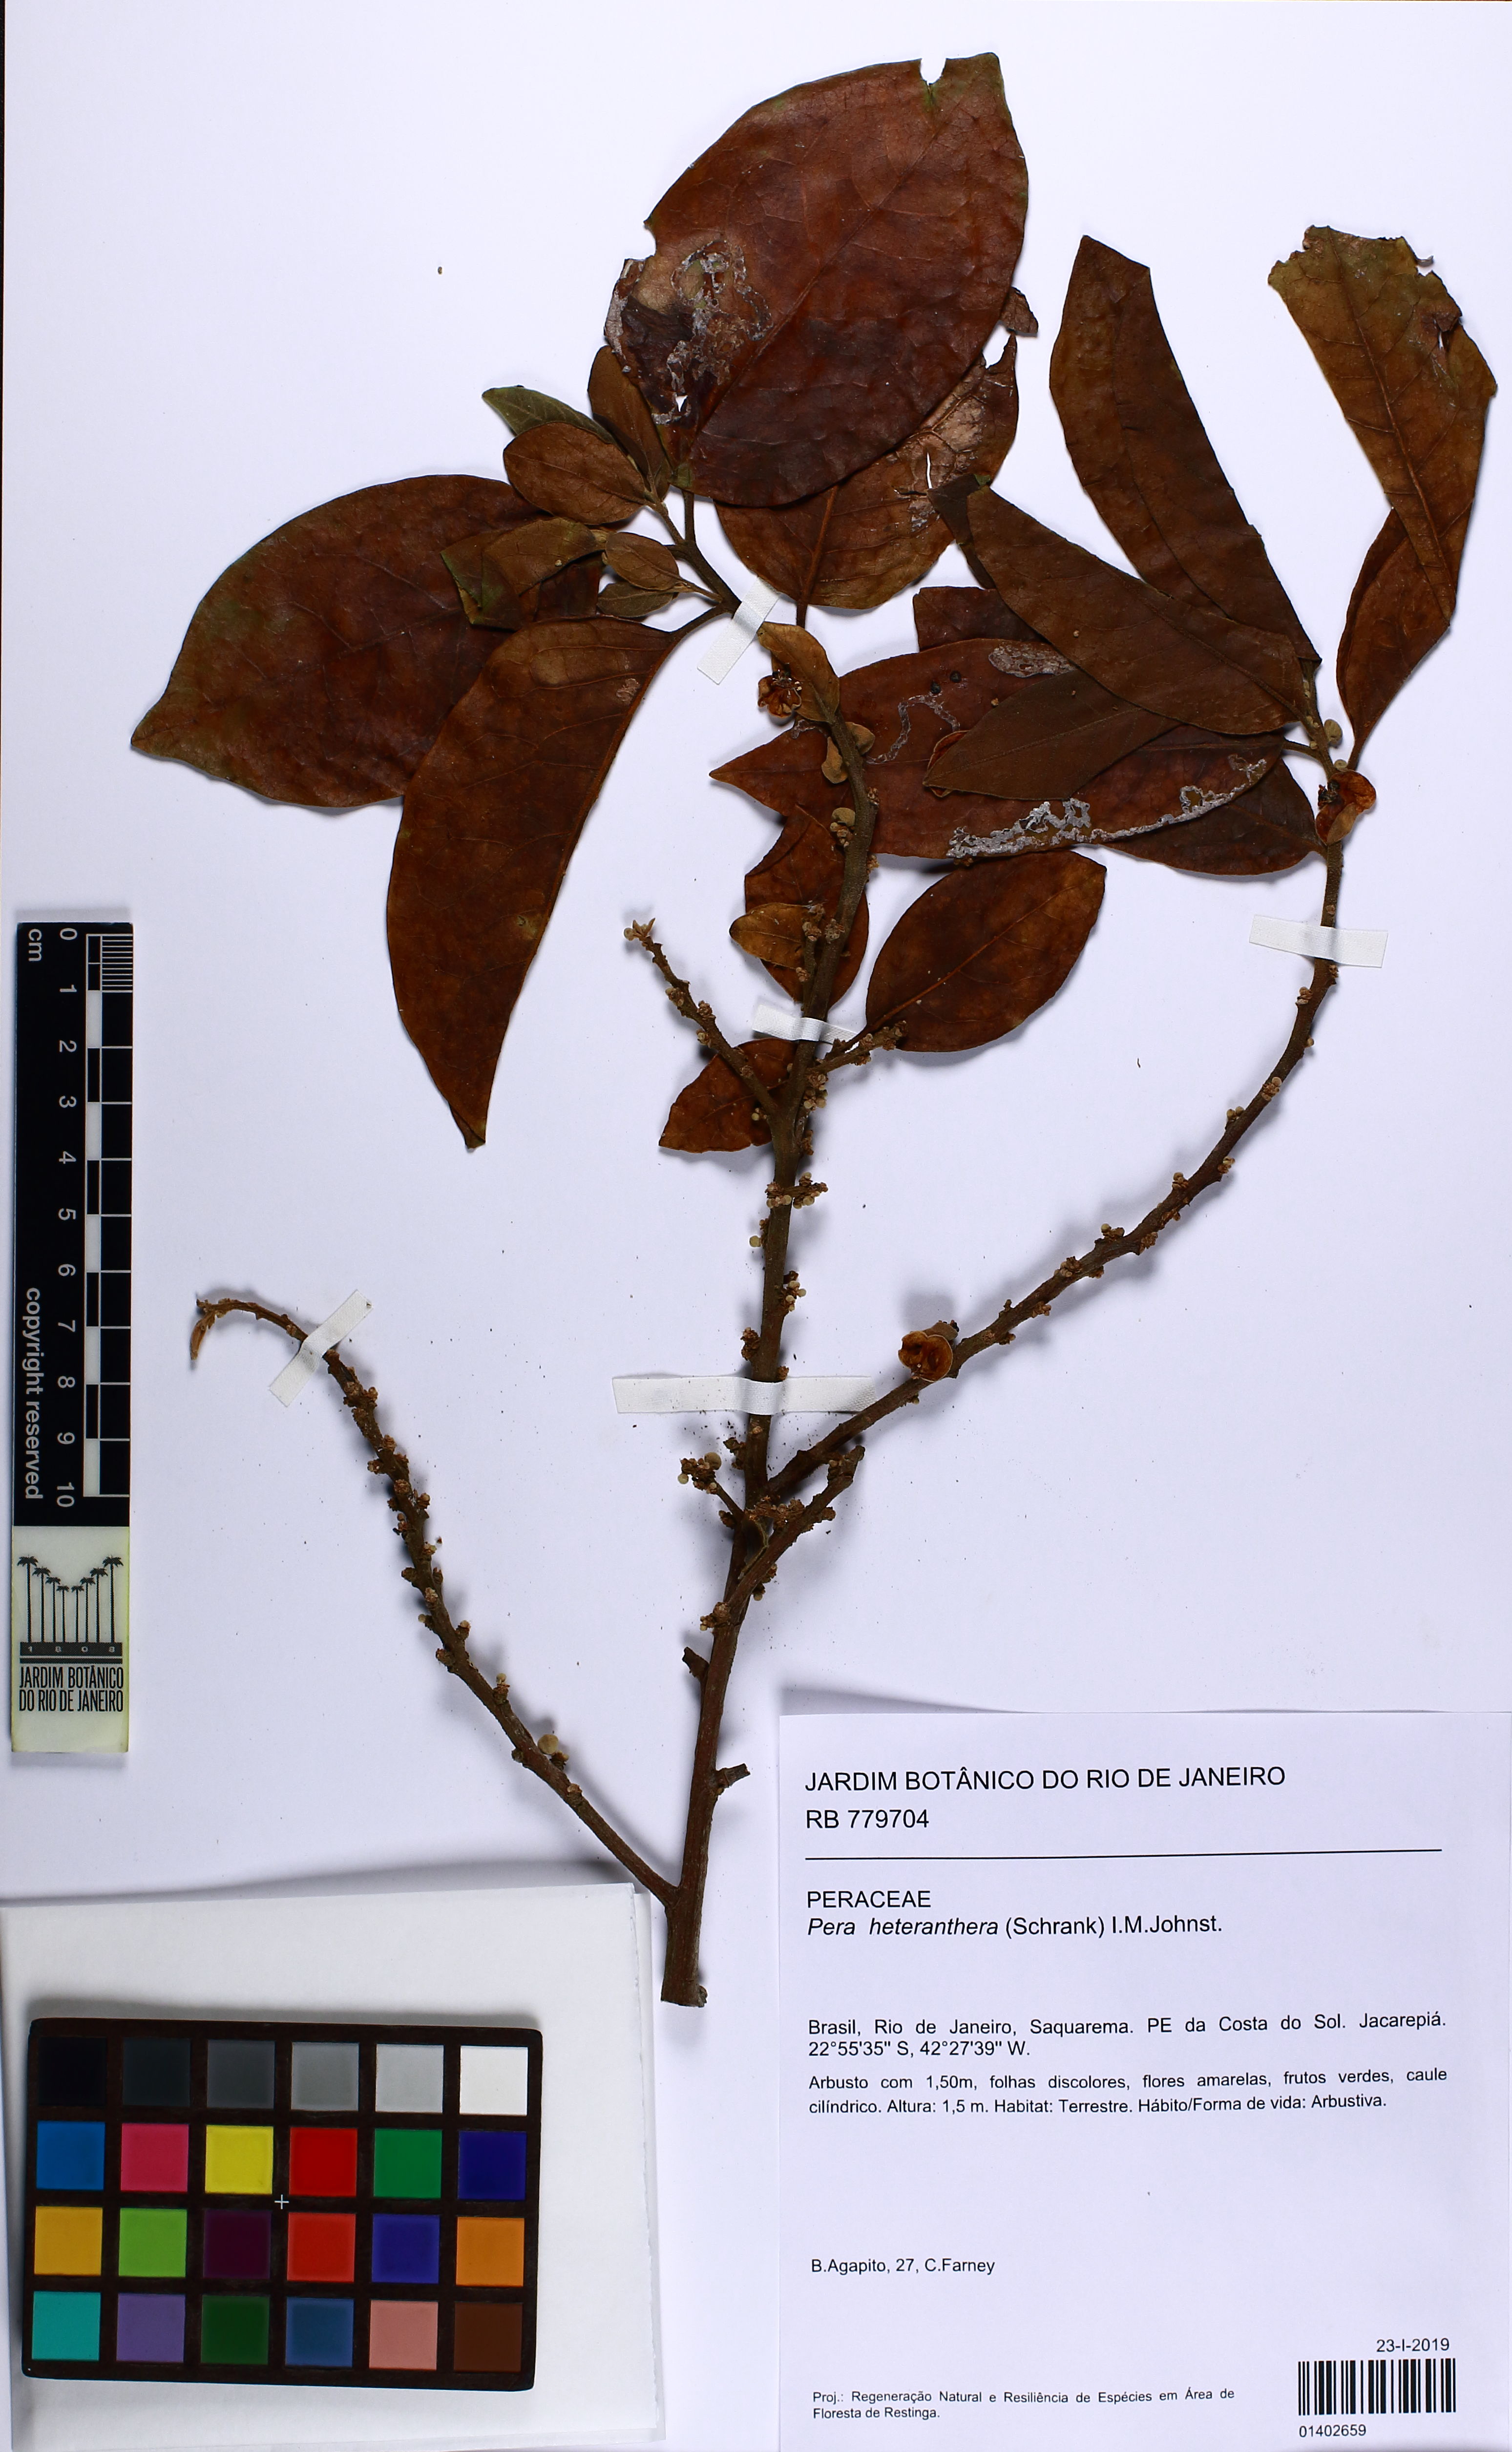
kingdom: Plantae
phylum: Tracheophyta
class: Magnoliopsida
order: Malpighiales
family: Peraceae
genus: Pera
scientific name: Pera heteranthera
